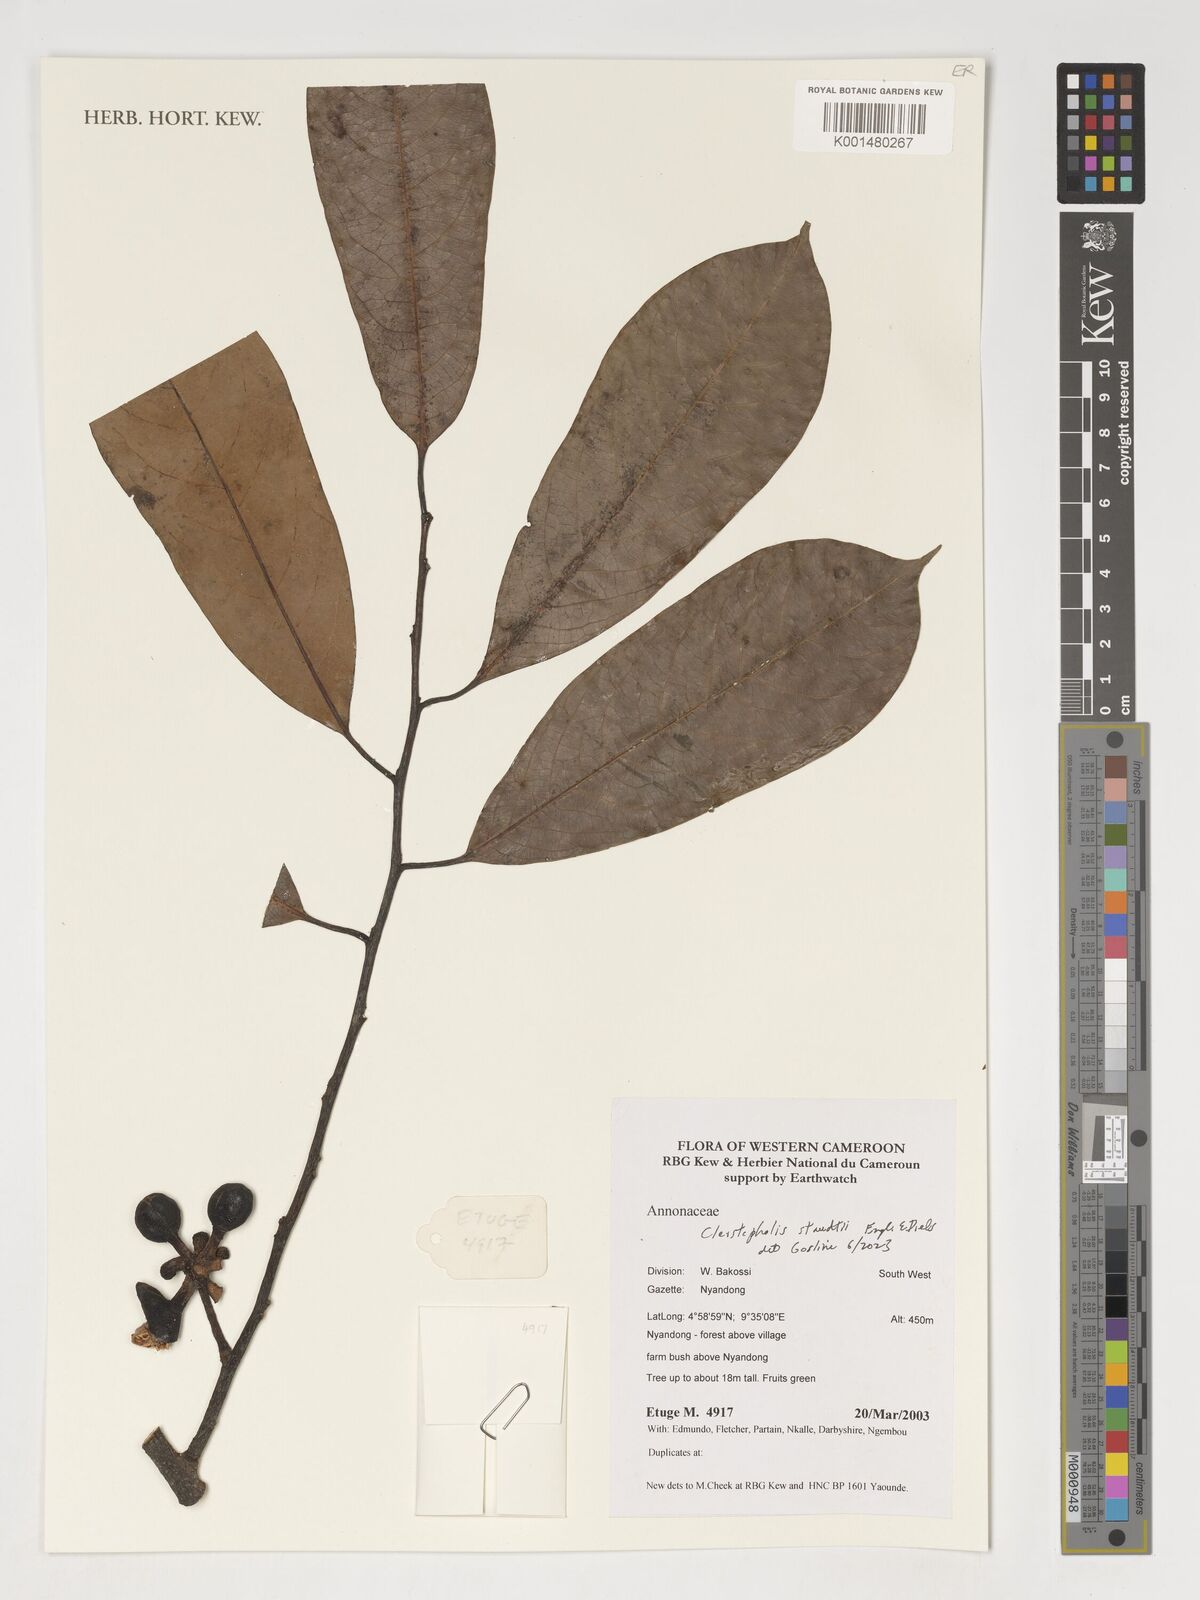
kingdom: Plantae
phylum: Tracheophyta
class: Magnoliopsida
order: Magnoliales
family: Annonaceae
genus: Cleistopholis
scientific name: Cleistopholis staudtii
